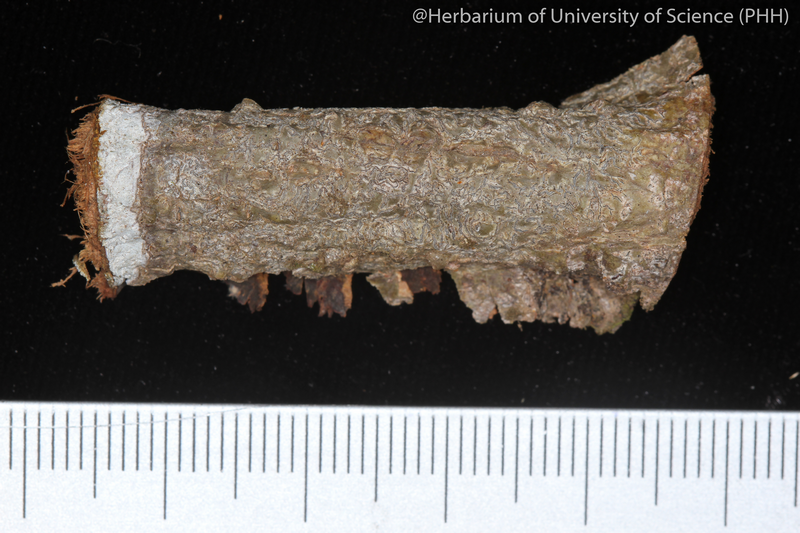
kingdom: Fungi
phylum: Ascomycota
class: Lecanoromycetes
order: Ostropales
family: Graphidaceae
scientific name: Graphidaceae
